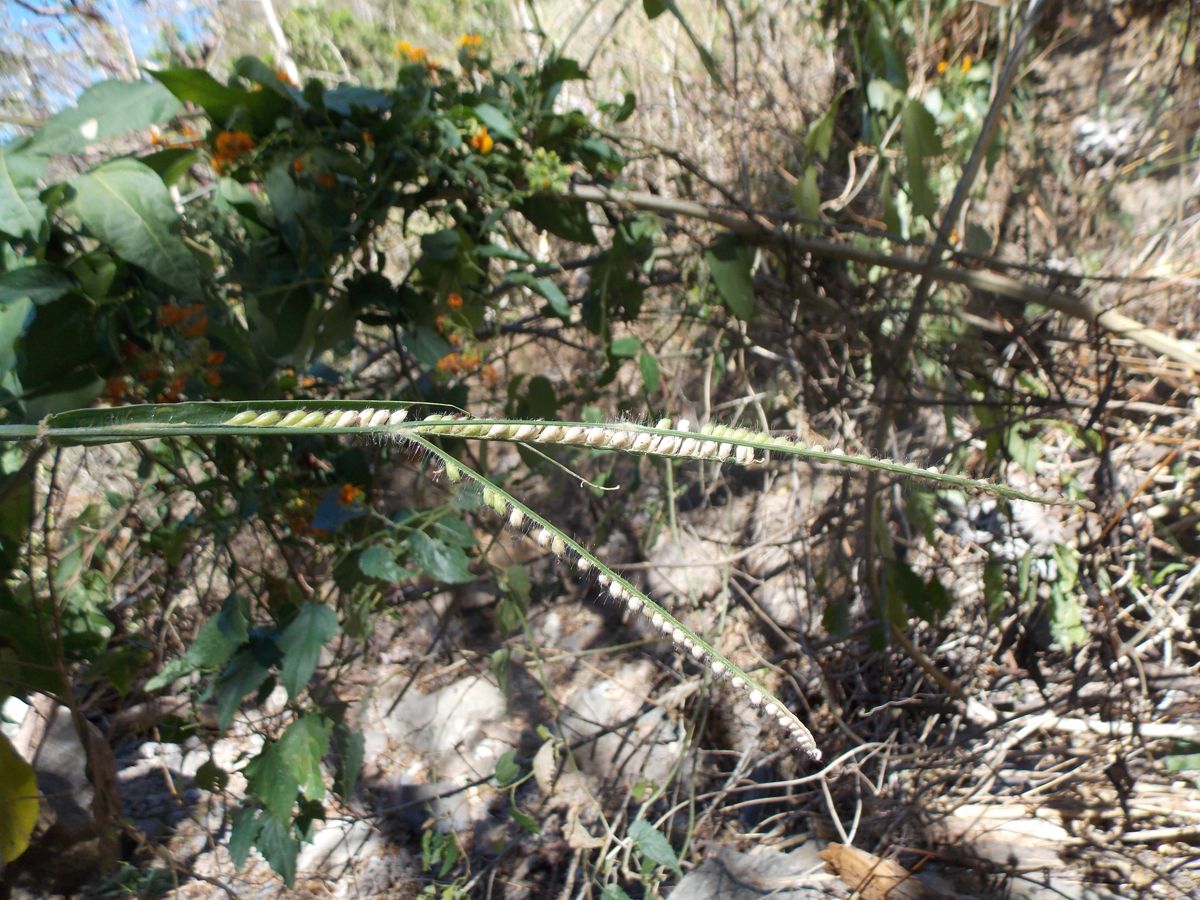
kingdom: Plantae
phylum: Tracheophyta
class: Liliopsida
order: Poales
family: Poaceae
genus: Urochloa
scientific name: Urochloa arrecta
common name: African signalgrass
